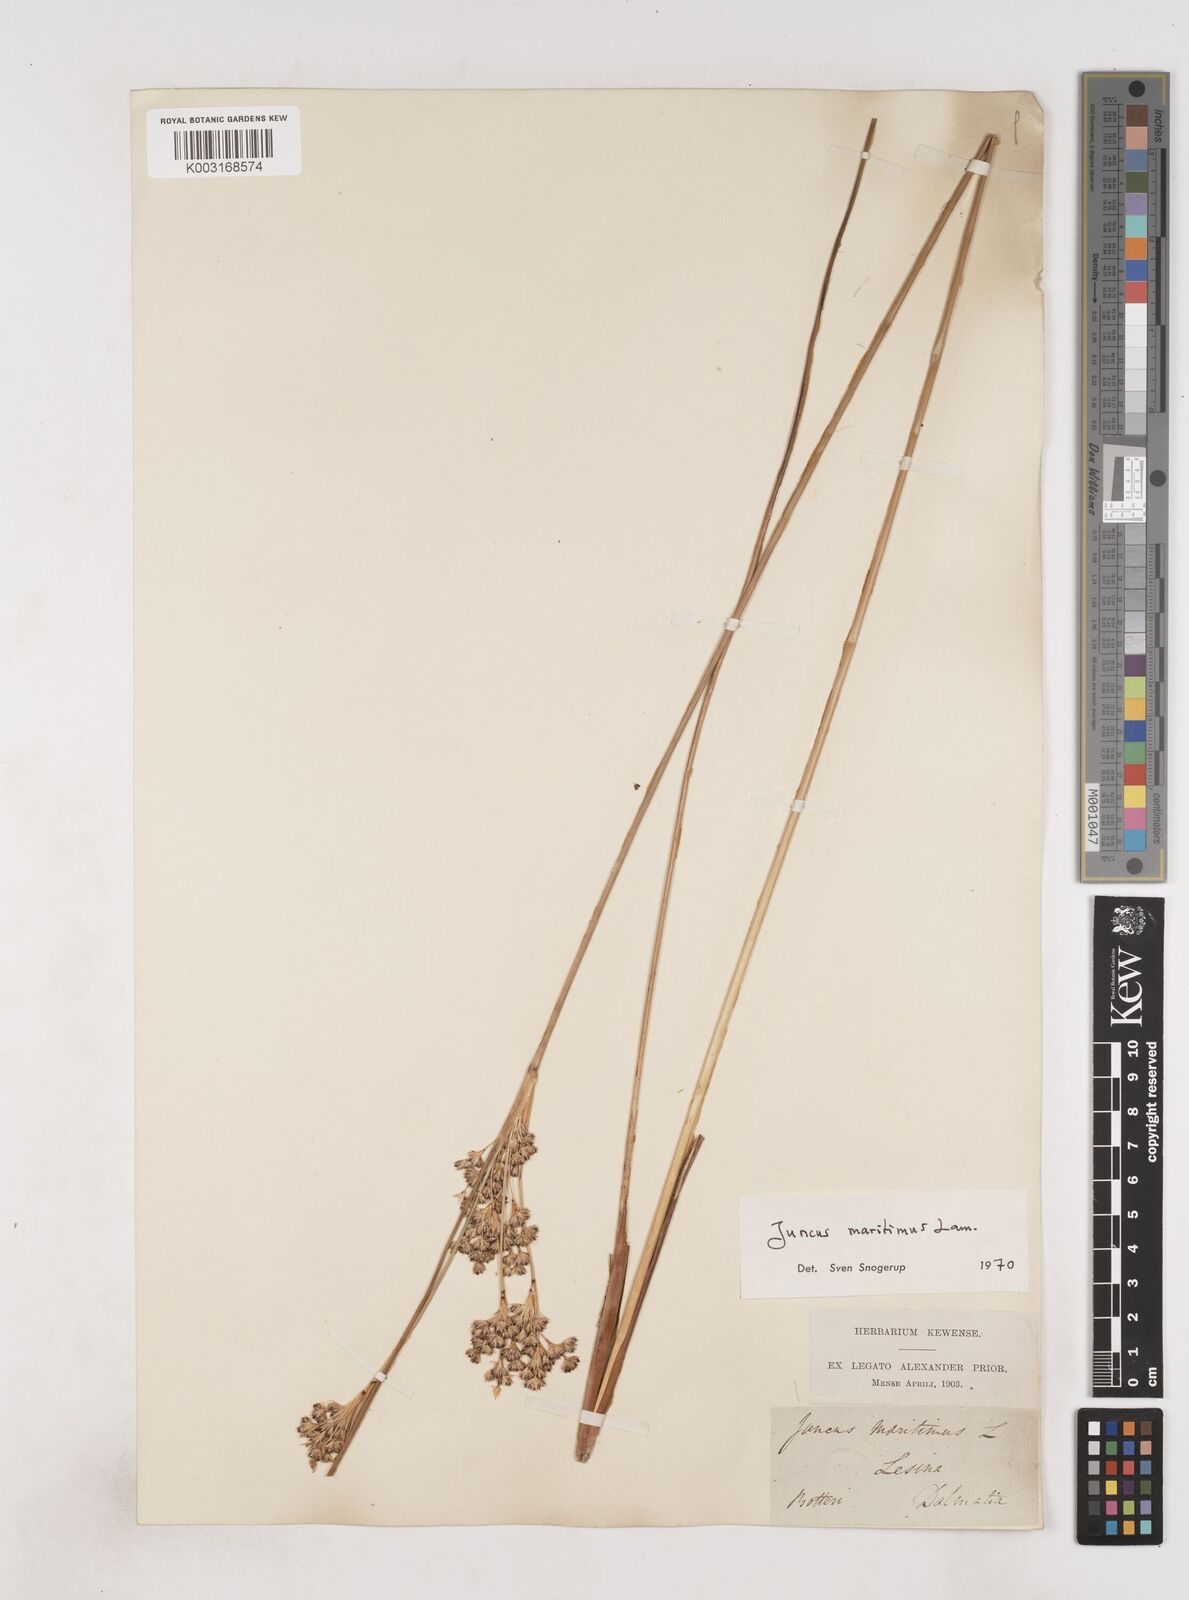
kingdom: Plantae
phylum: Tracheophyta
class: Liliopsida
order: Poales
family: Juncaceae
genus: Juncus
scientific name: Juncus maritimus
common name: Sea rush
